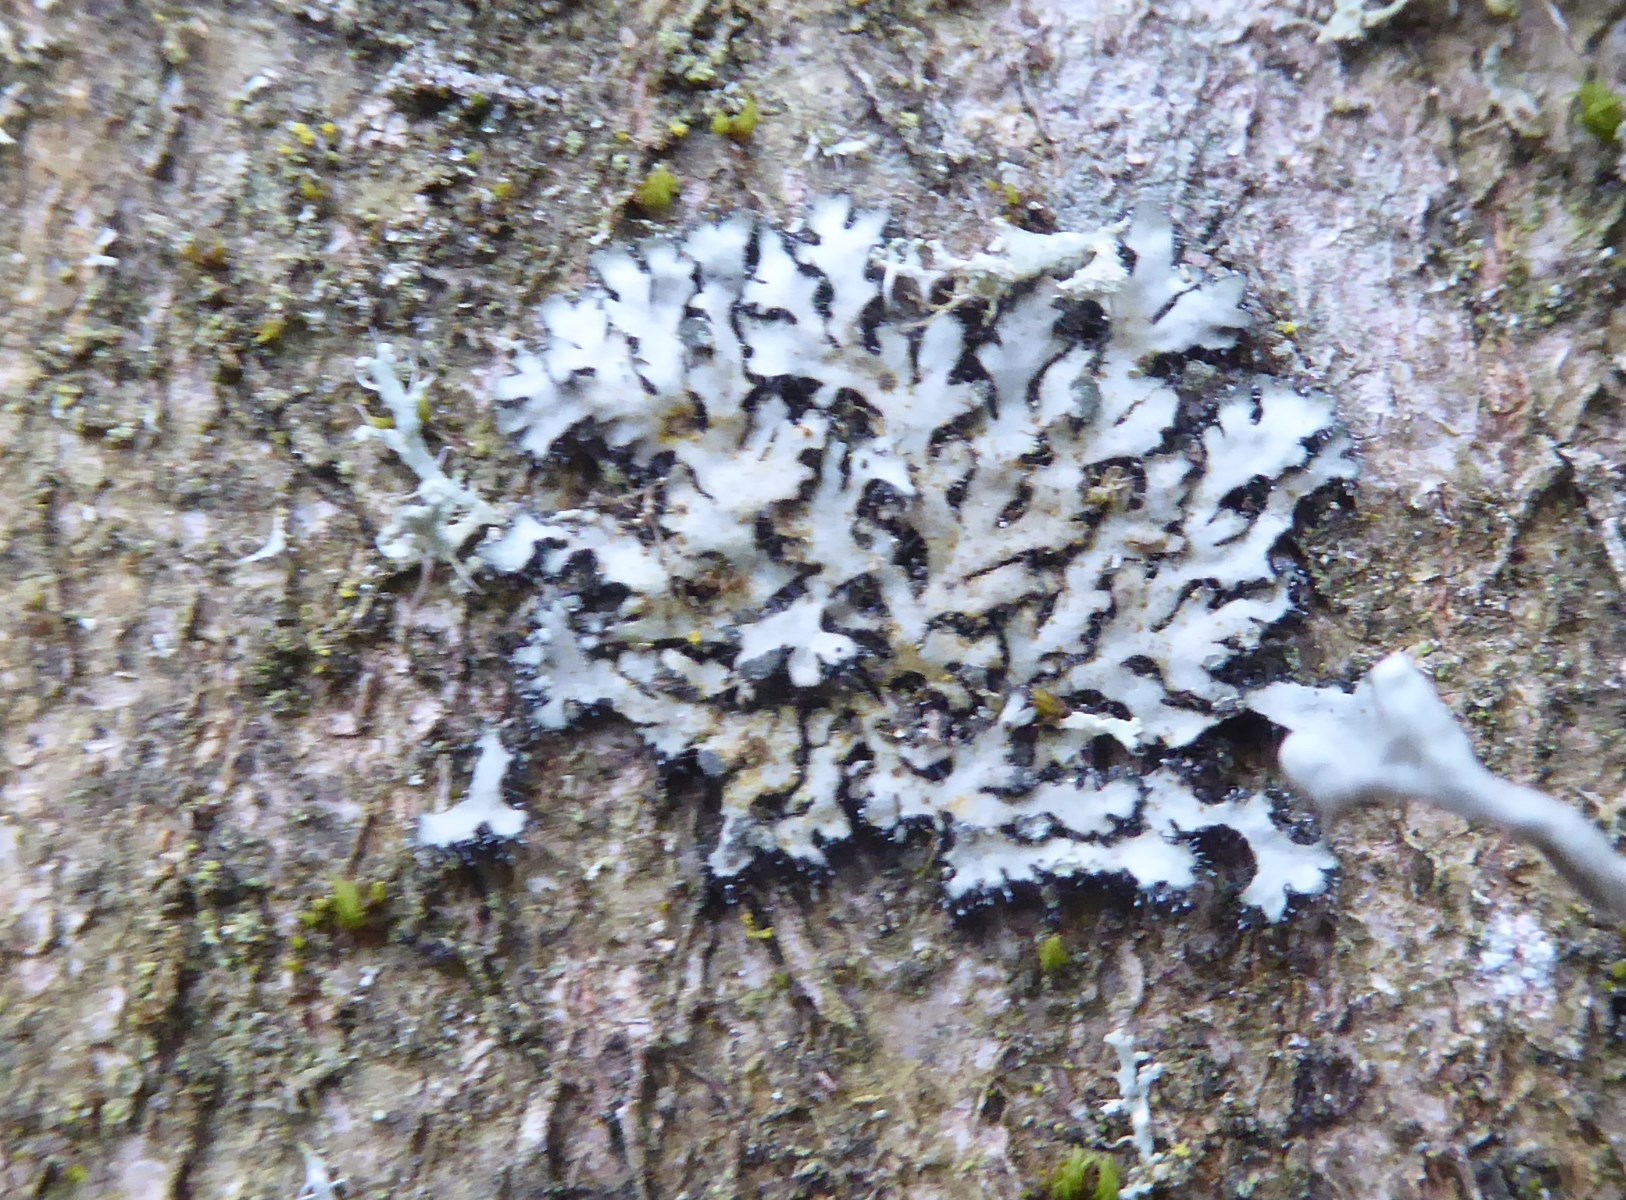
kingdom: Fungi
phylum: Ascomycota
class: Lecanoromycetes
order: Caliciales
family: Physciaceae
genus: Phaeophyscia
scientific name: Phaeophyscia orbicularis
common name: grågrøn rosetlav
